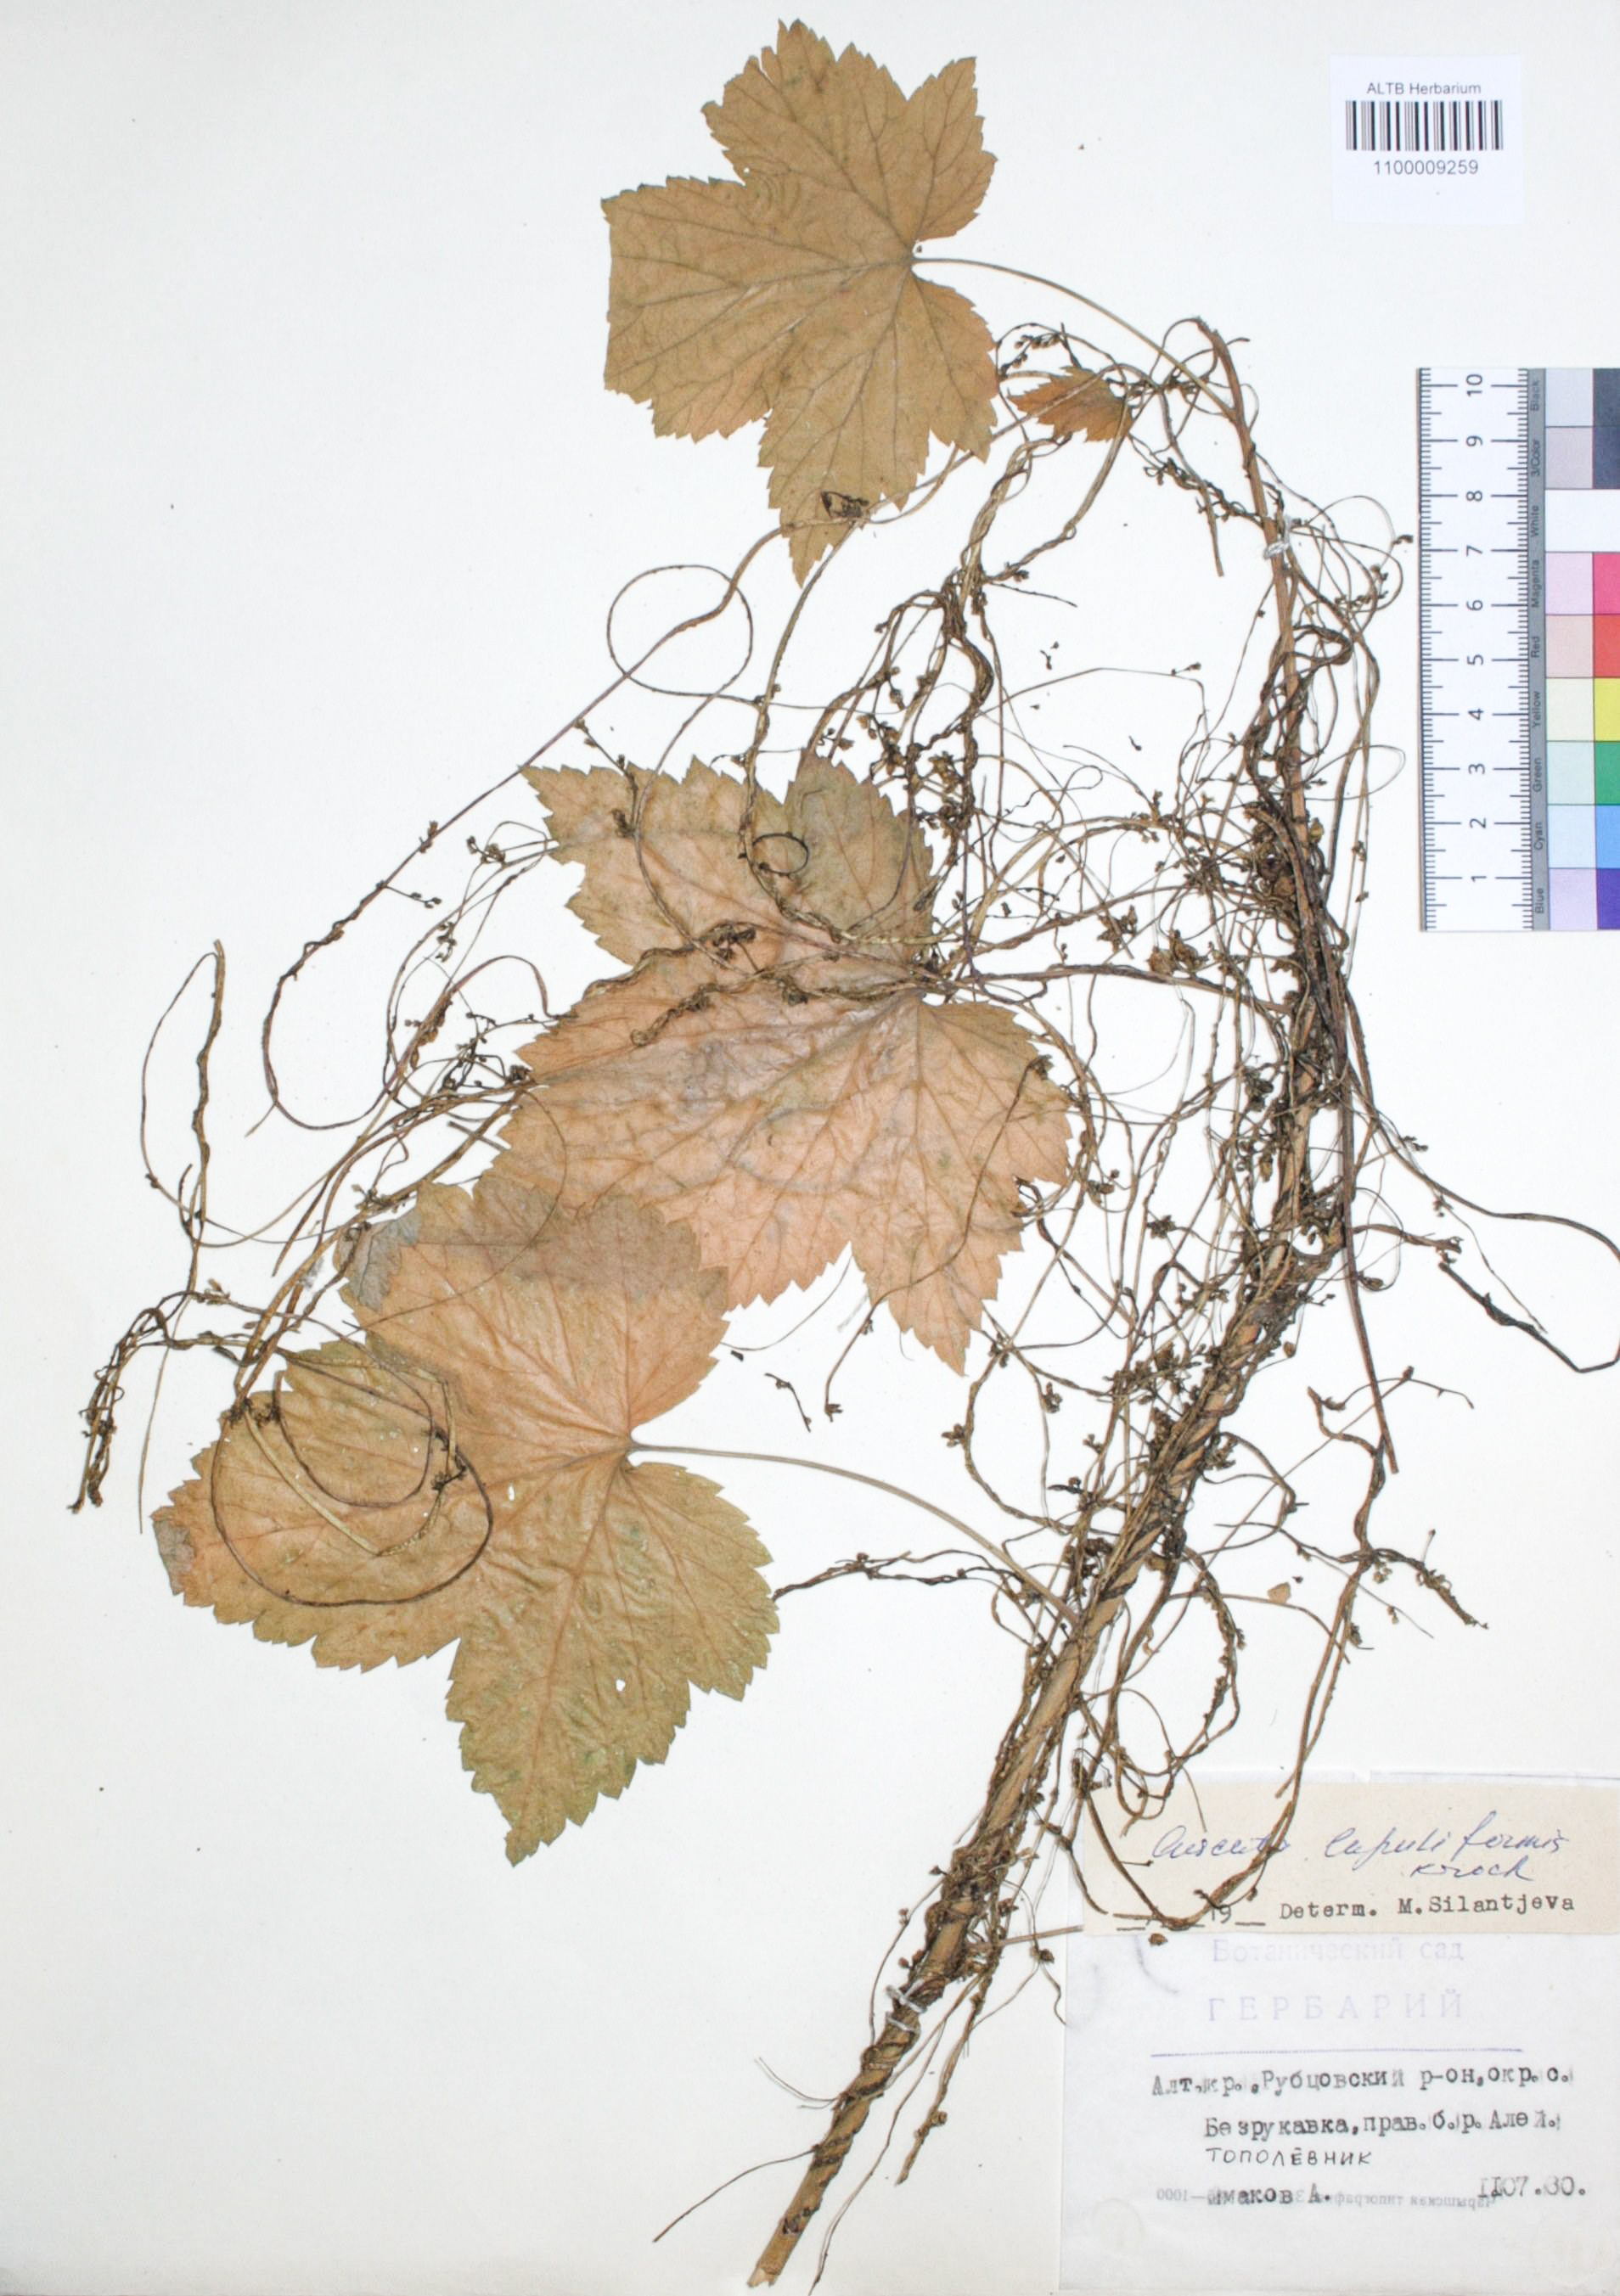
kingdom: Plantae
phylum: Tracheophyta
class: Magnoliopsida
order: Solanales
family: Convolvulaceae
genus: Cuscuta
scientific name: Cuscuta lupuliformis
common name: Hop dodder
